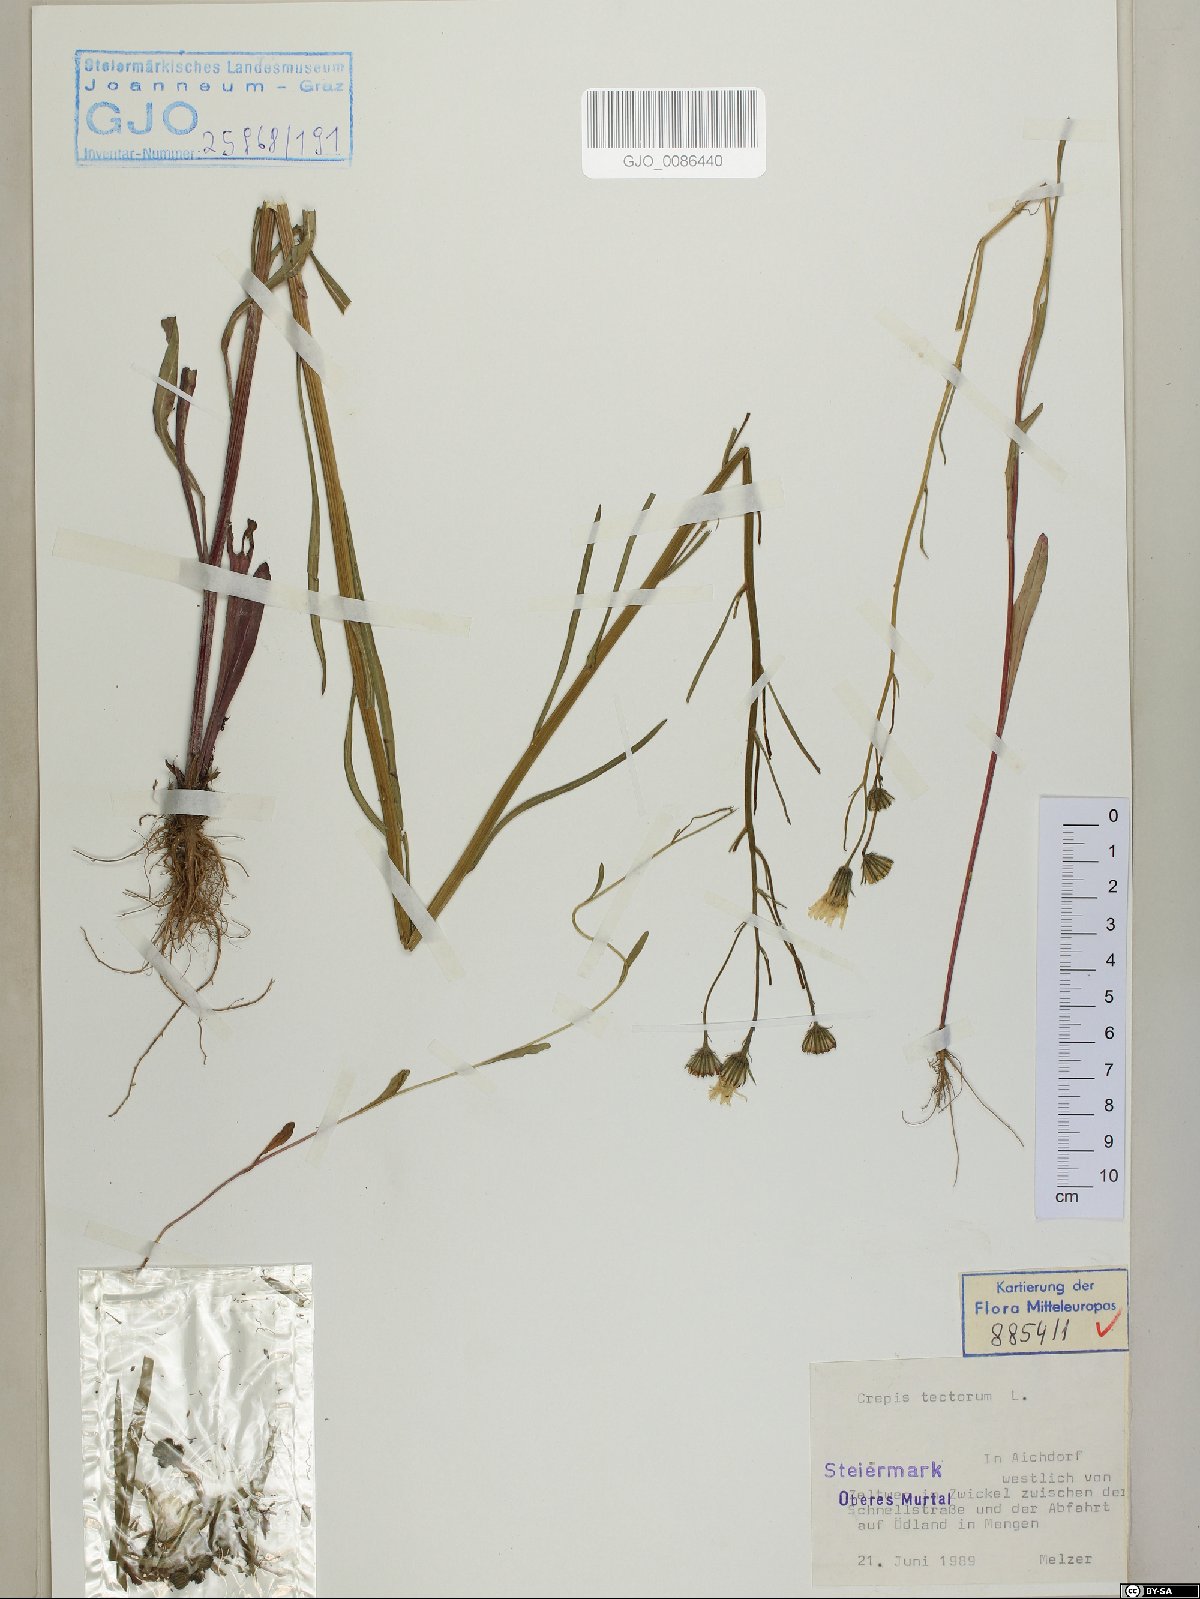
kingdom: Plantae
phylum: Tracheophyta
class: Magnoliopsida
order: Asterales
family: Asteraceae
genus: Crepis
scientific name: Crepis tectorum
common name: Narrow-leaved hawk's-beard
